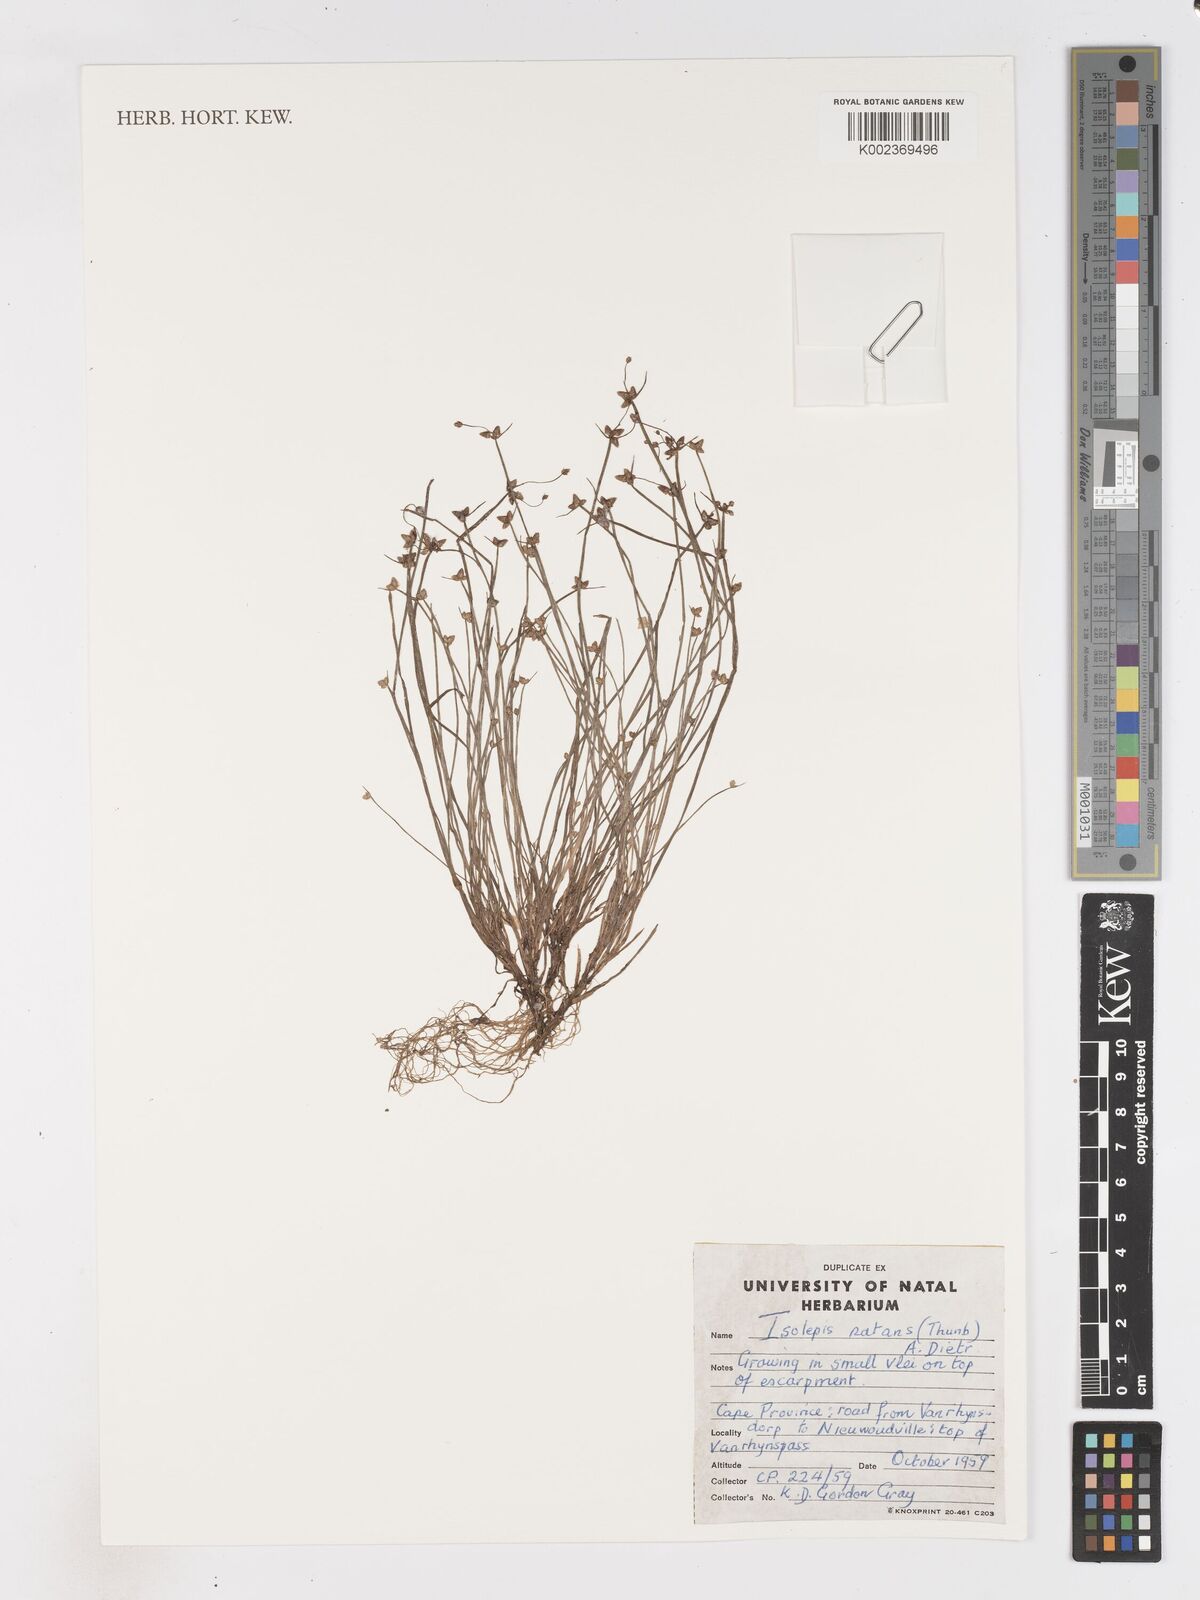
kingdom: Plantae
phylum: Tracheophyta
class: Liliopsida
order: Poales
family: Cyperaceae
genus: Isolepis
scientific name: Isolepis natans
